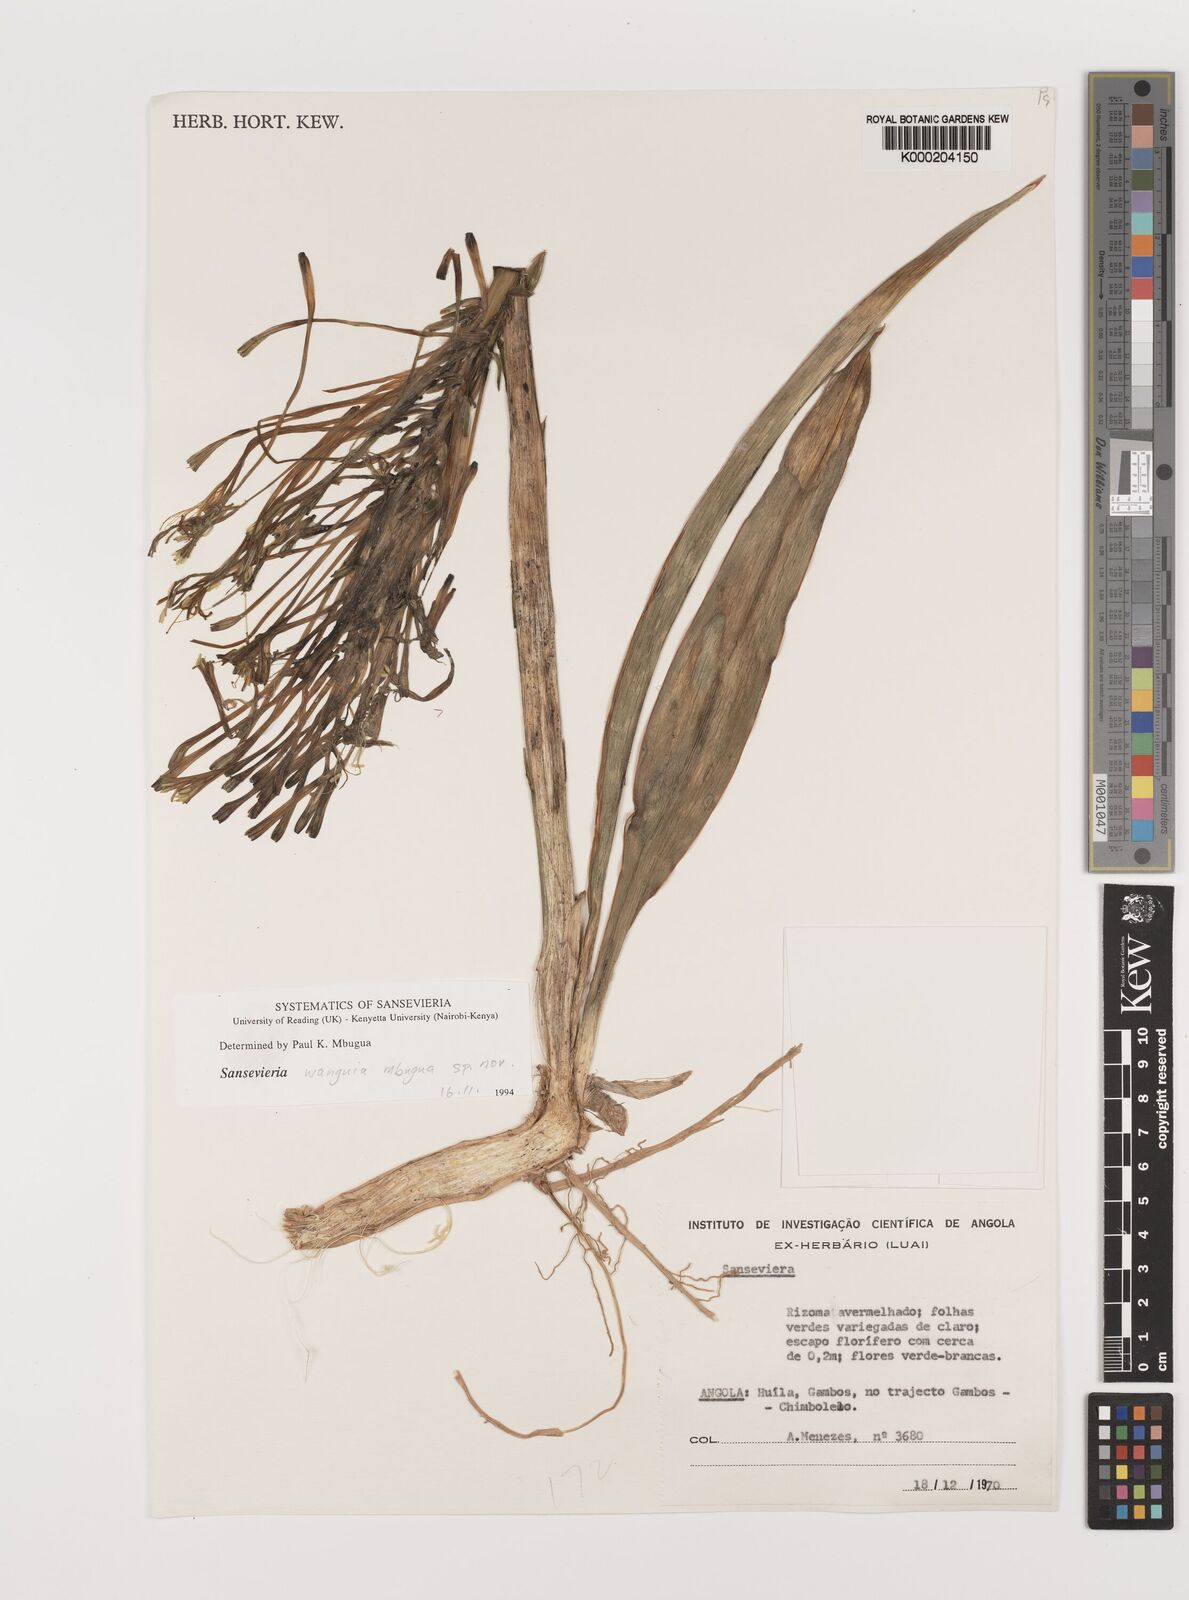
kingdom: Plantae
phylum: Tracheophyta
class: Liliopsida
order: Asparagales
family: Asparagaceae
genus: Dracaena
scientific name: Dracaena
